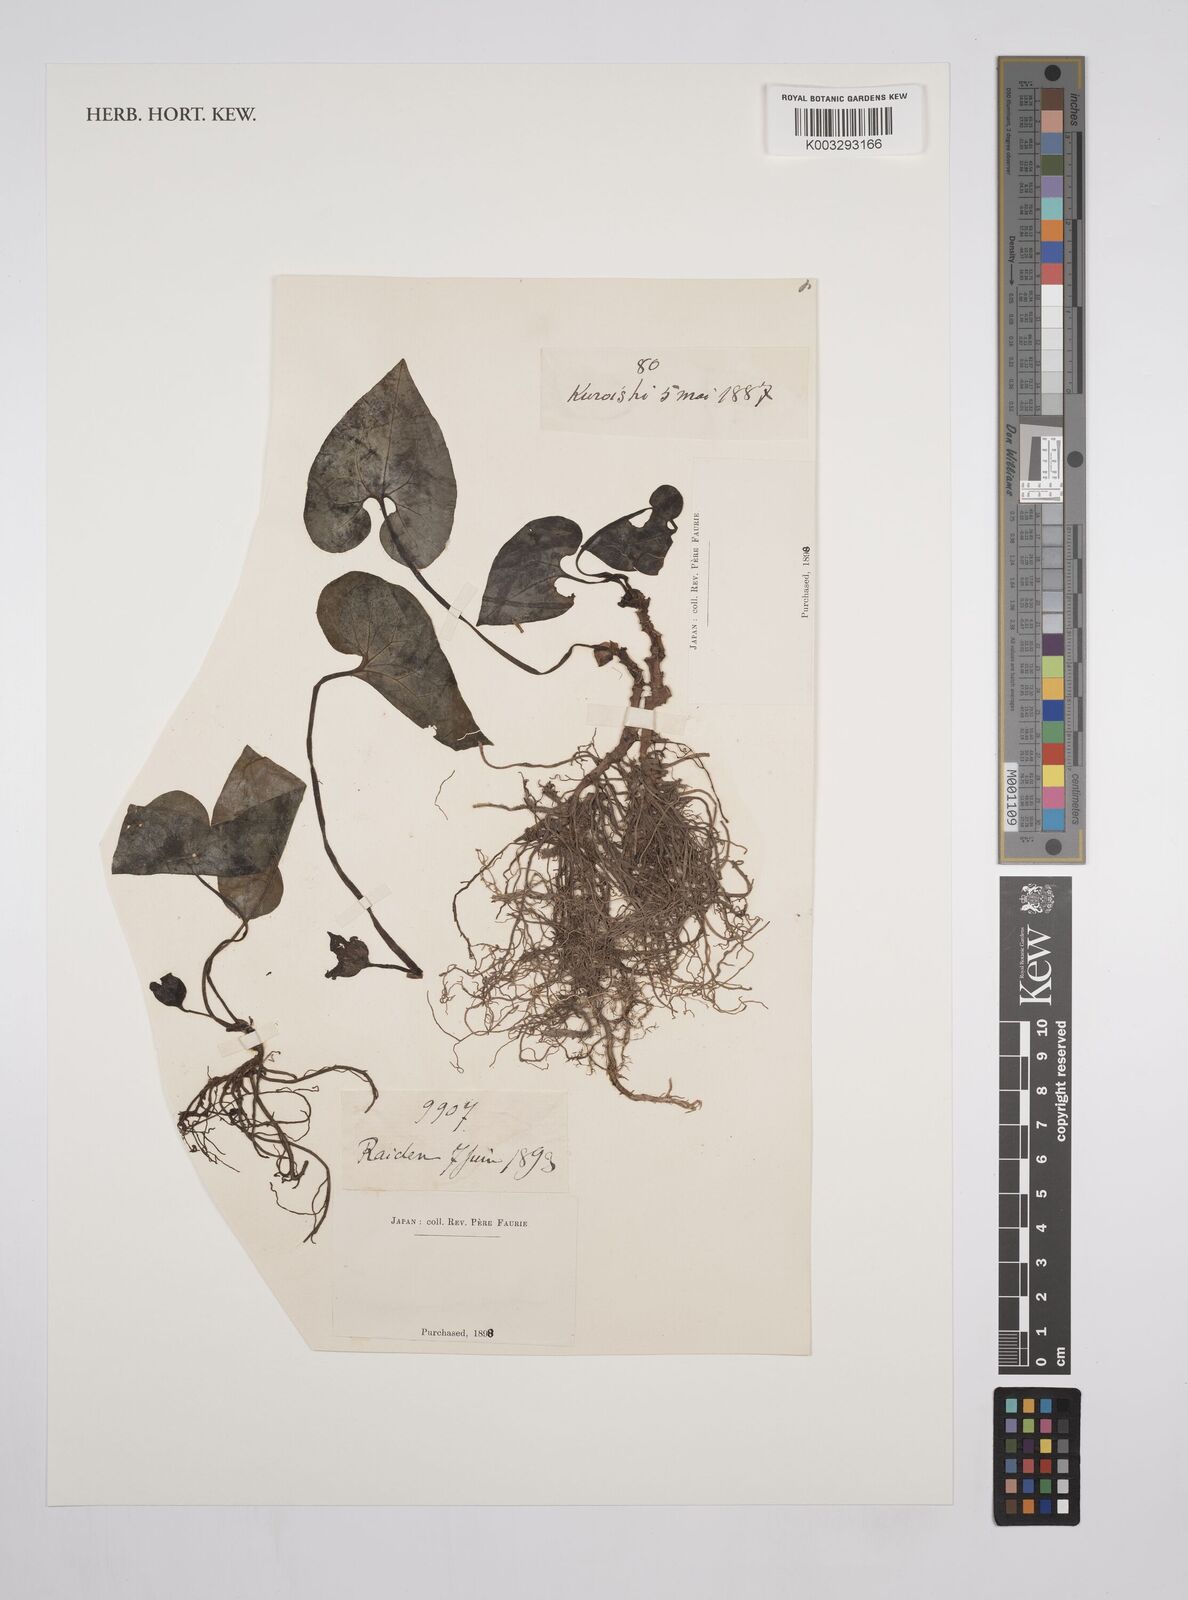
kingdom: Plantae
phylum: Tracheophyta
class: Magnoliopsida
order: Piperales
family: Aristolochiaceae
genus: Asarum
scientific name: Asarum
